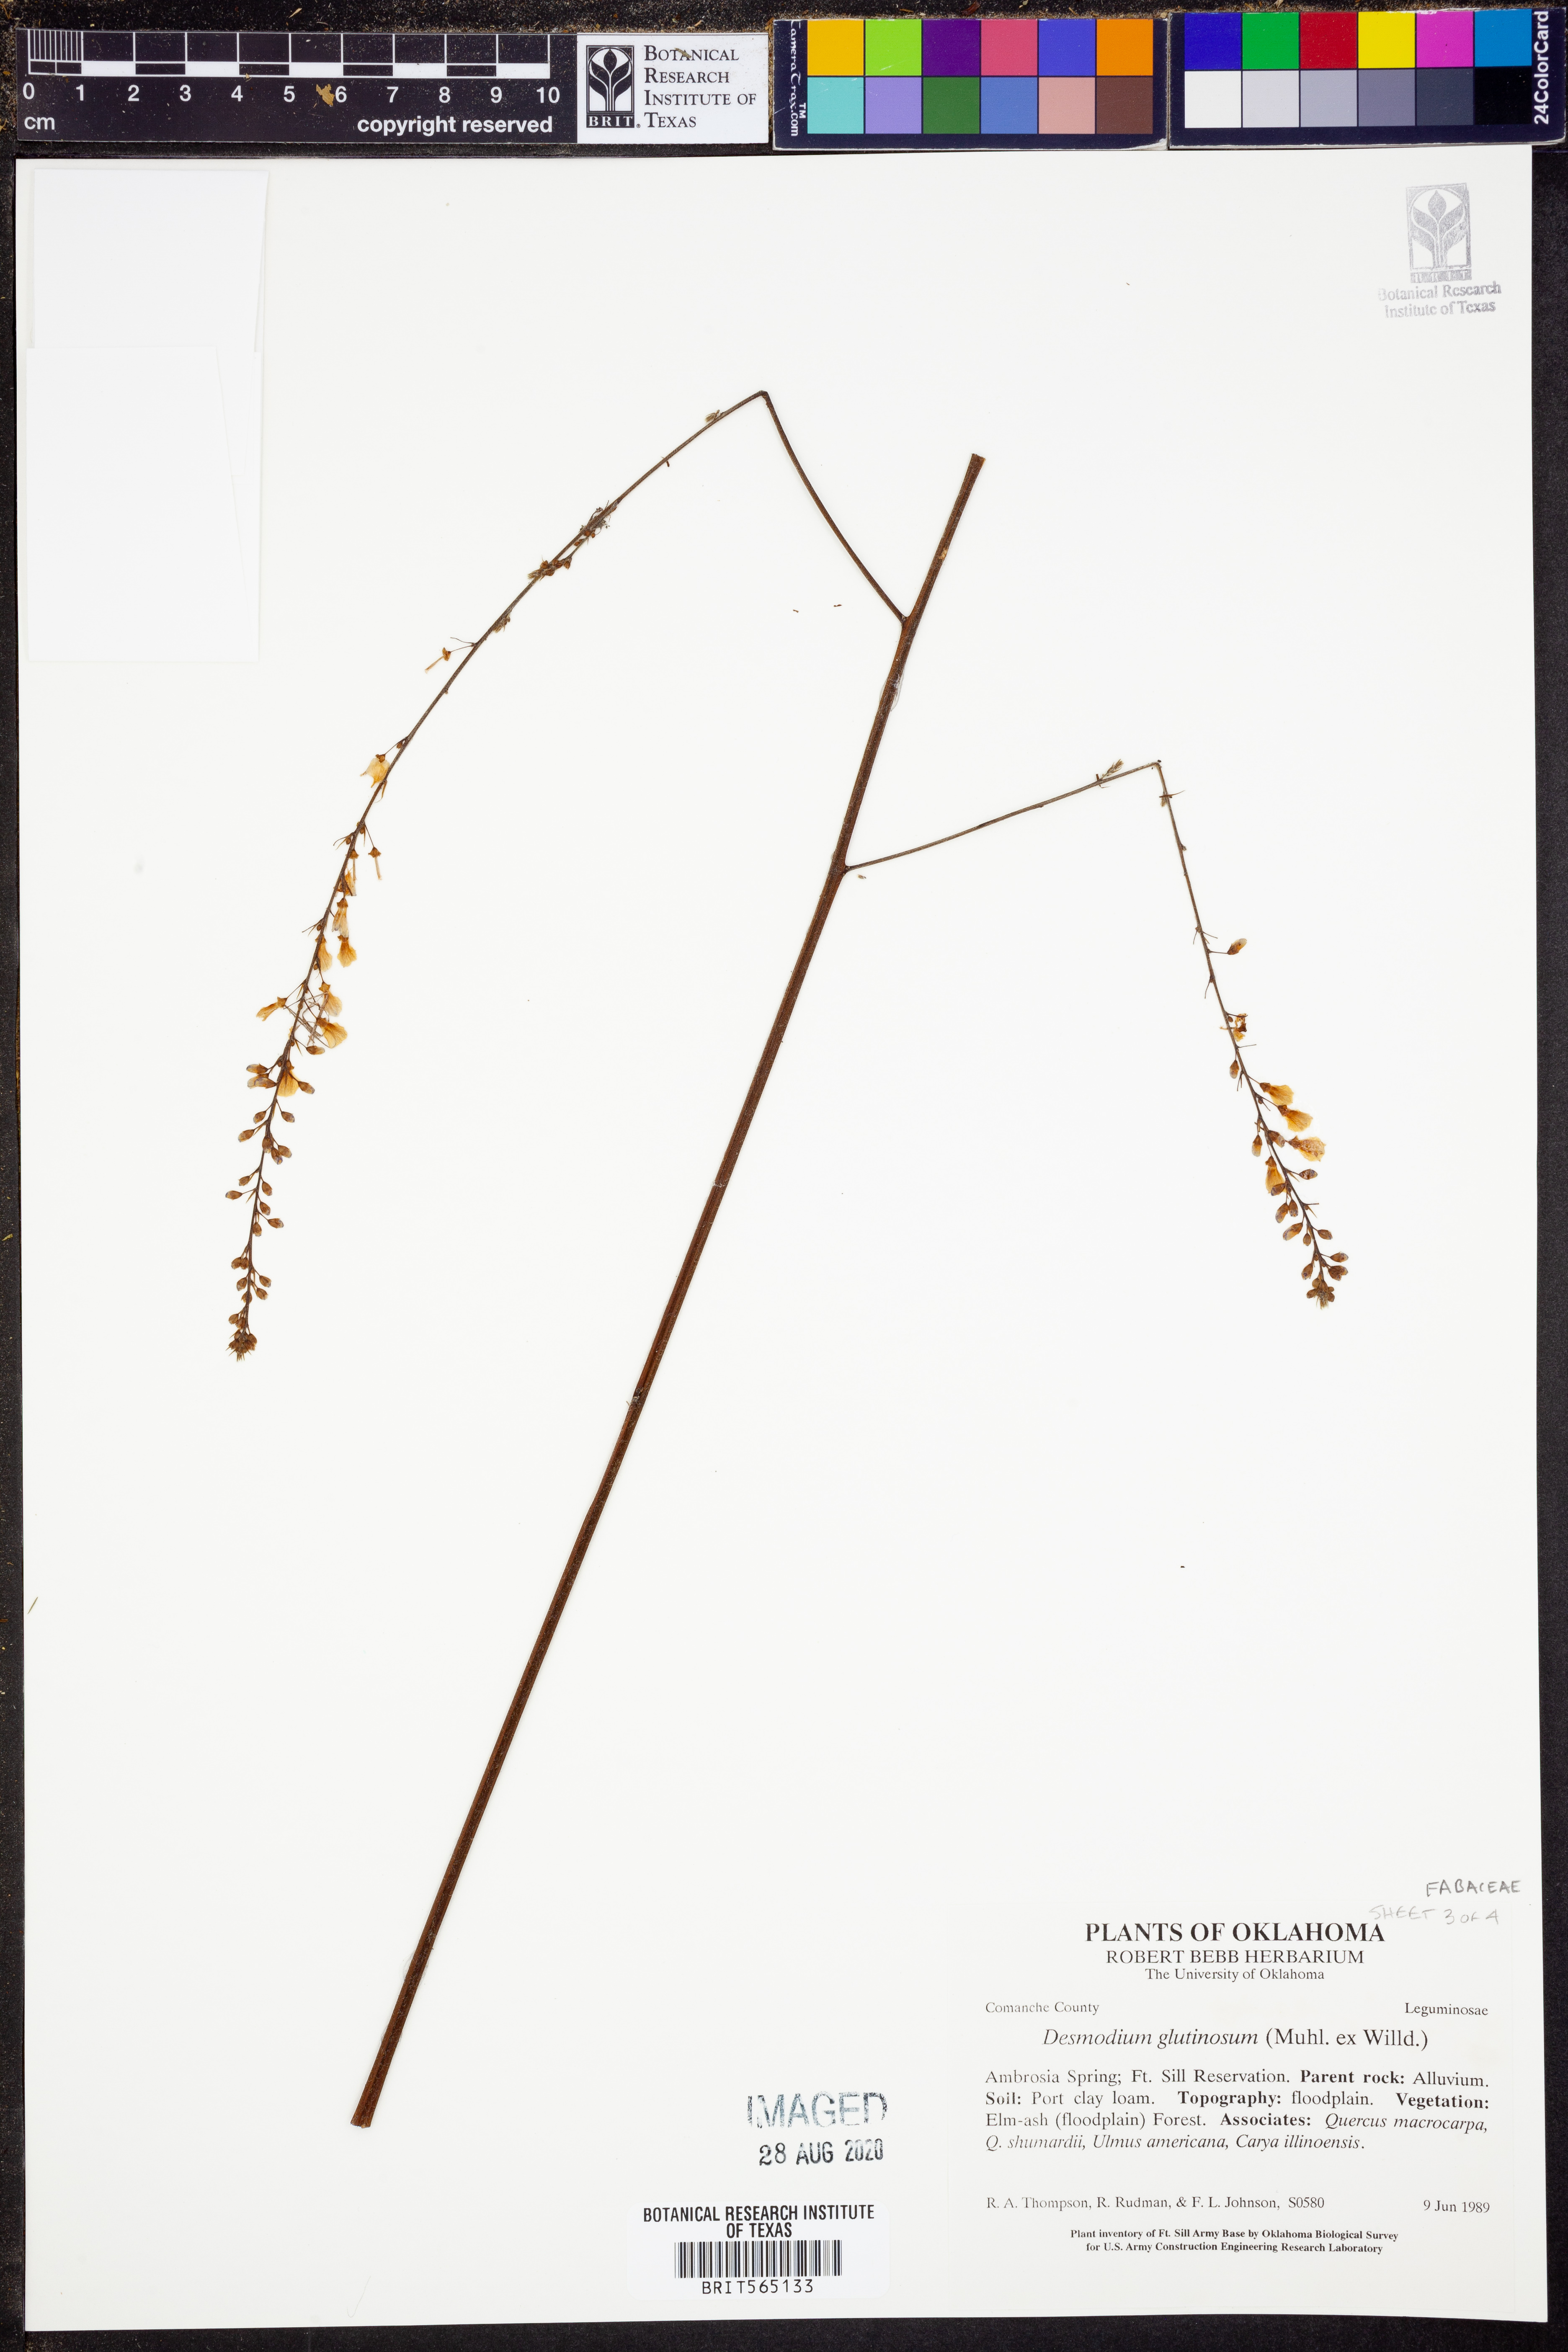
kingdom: Plantae
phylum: Tracheophyta
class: Magnoliopsida
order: Fabales
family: Fabaceae
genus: Hylodesmum
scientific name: Hylodesmum glutinosum
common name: Clustered-leaved tick-trefoil
